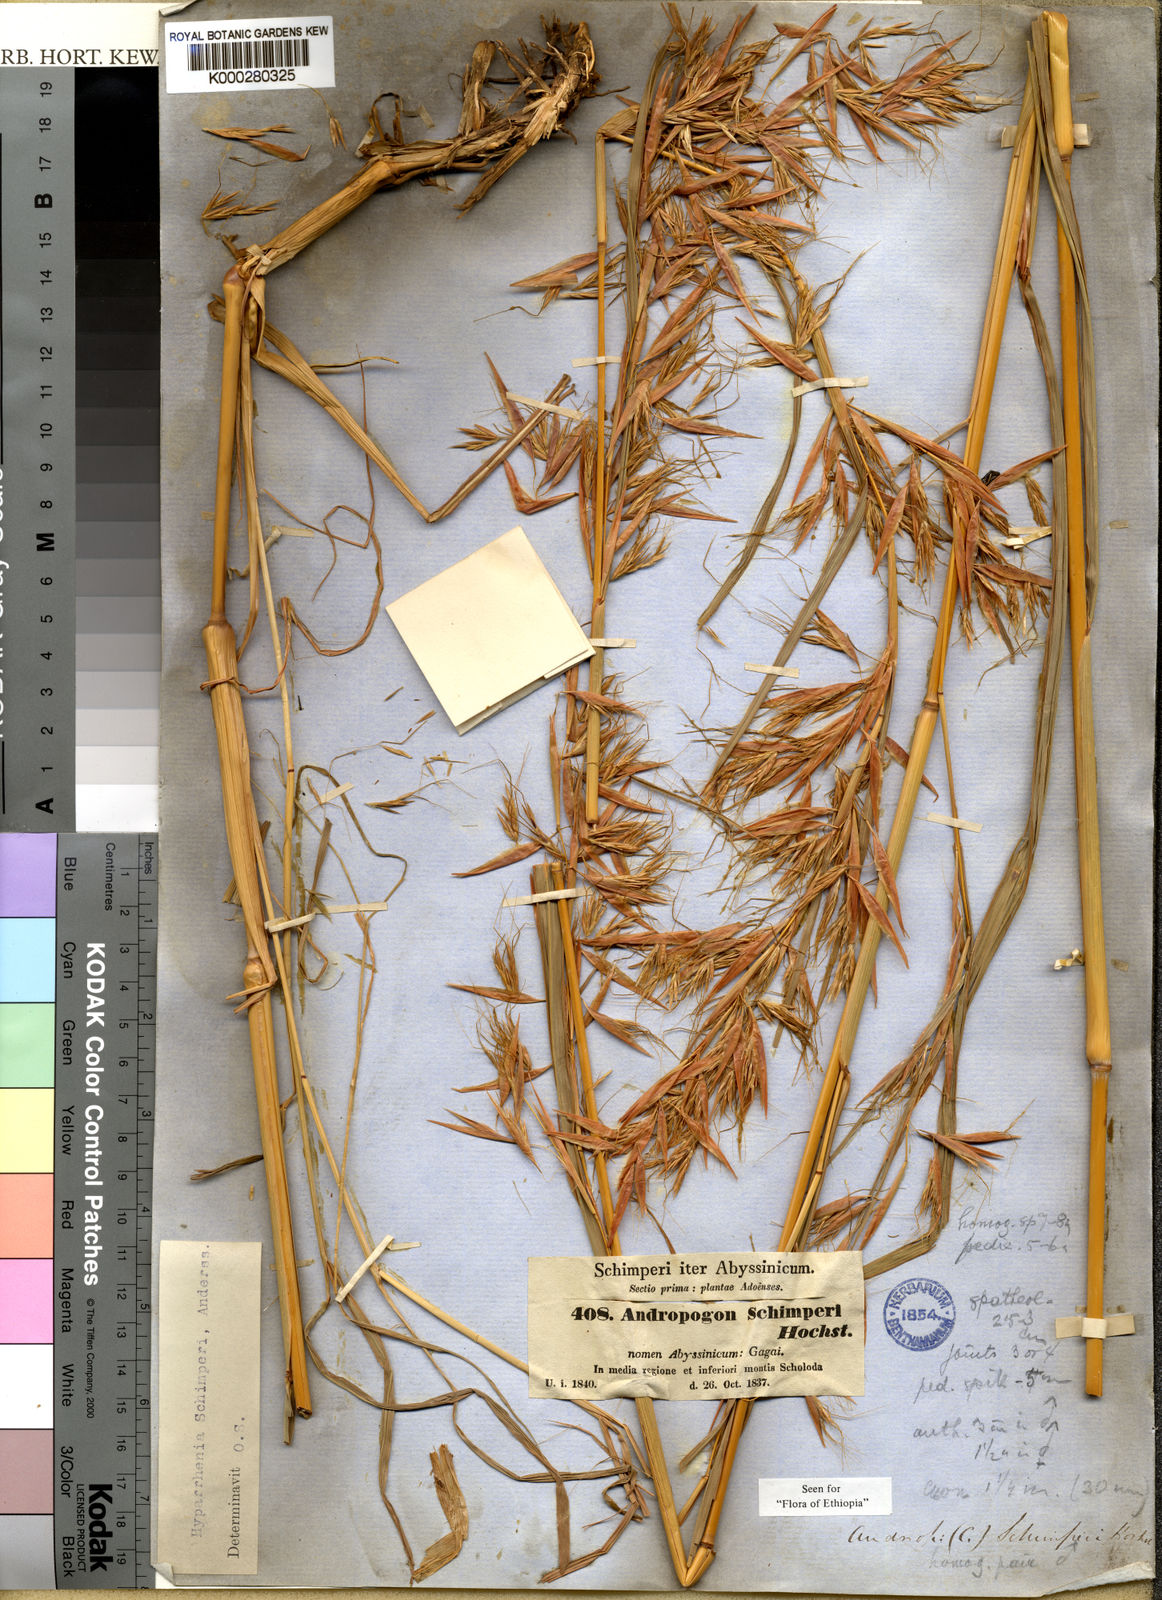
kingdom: Plantae
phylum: Tracheophyta
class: Liliopsida
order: Poales
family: Poaceae
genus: Hyparrhenia
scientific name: Hyparrhenia
